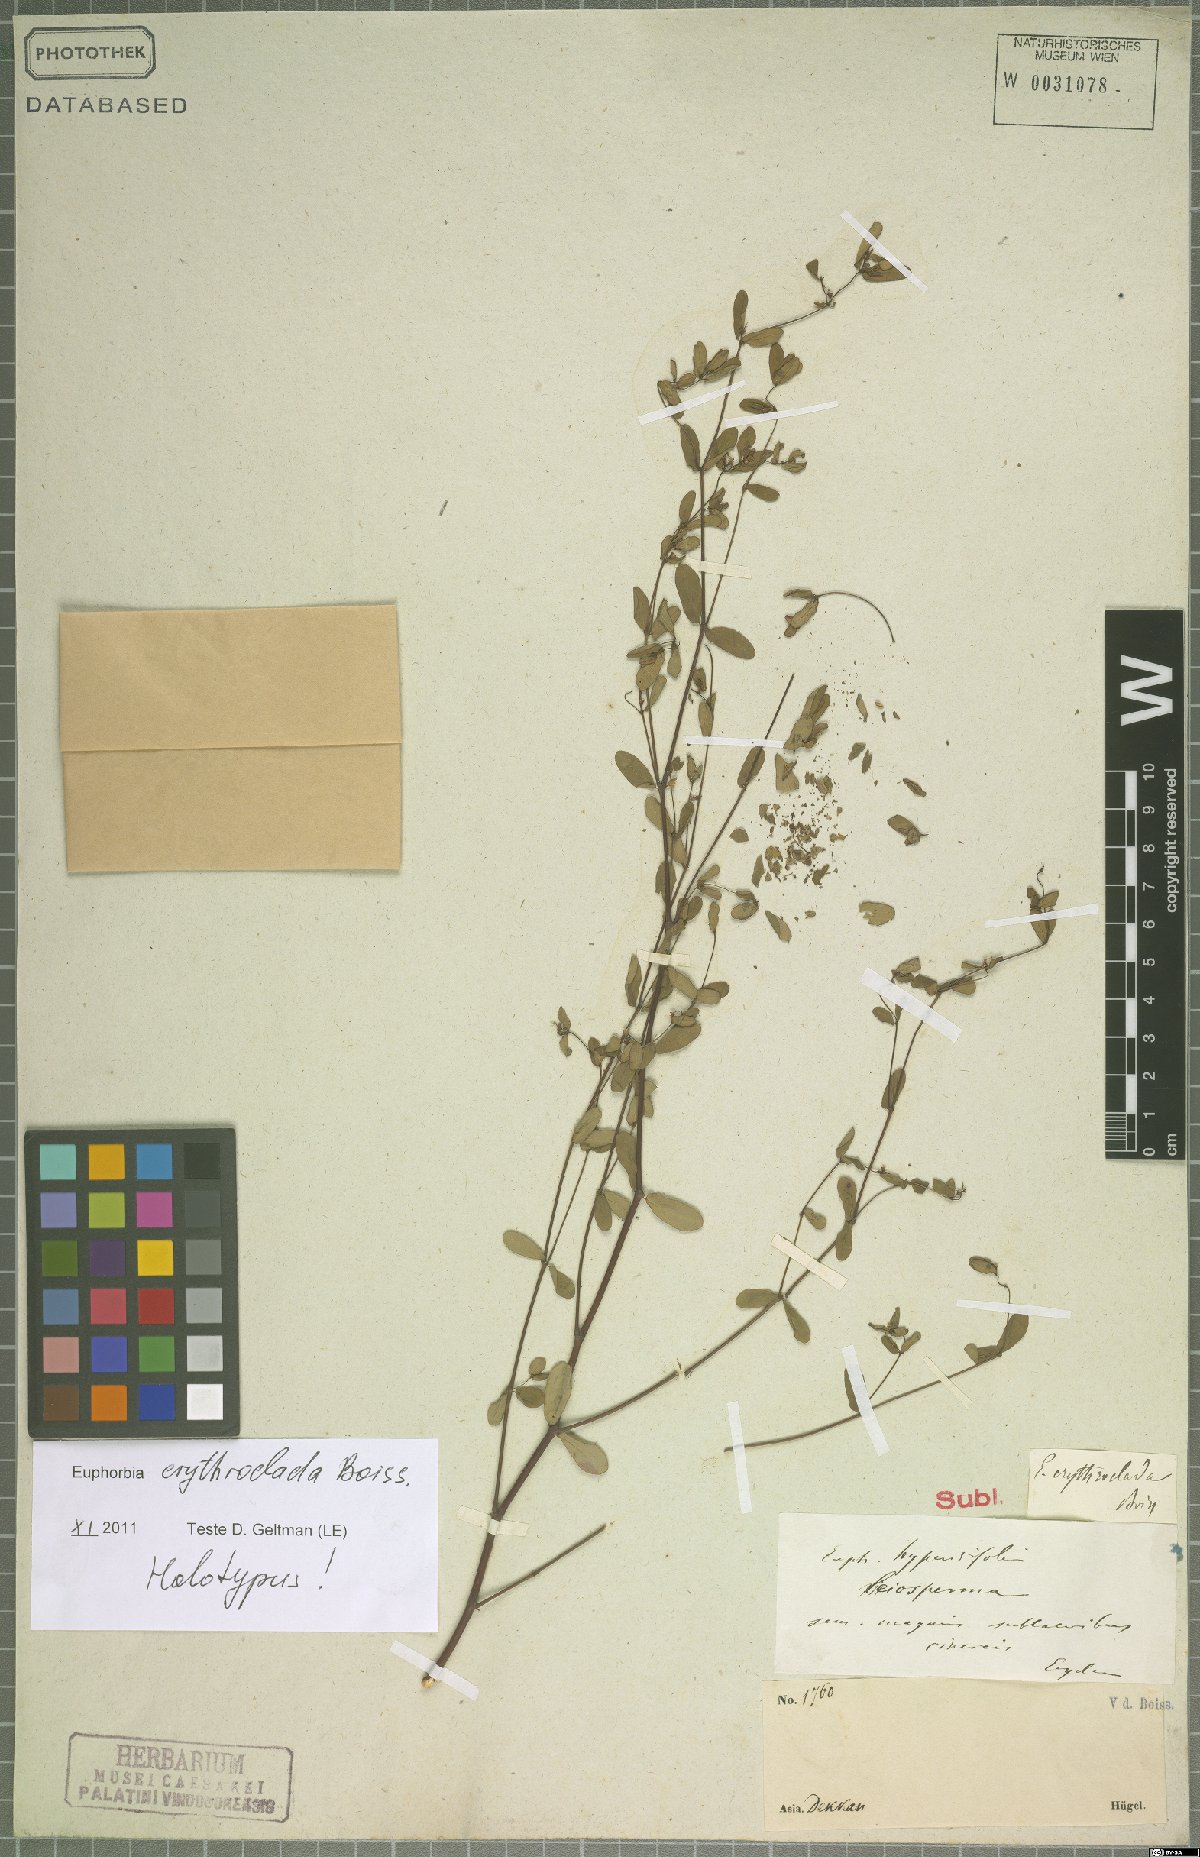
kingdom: Plantae
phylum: Tracheophyta
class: Magnoliopsida
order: Malpighiales
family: Euphorbiaceae
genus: Euphorbia
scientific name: Euphorbia erythroclada
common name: Dhudheri
